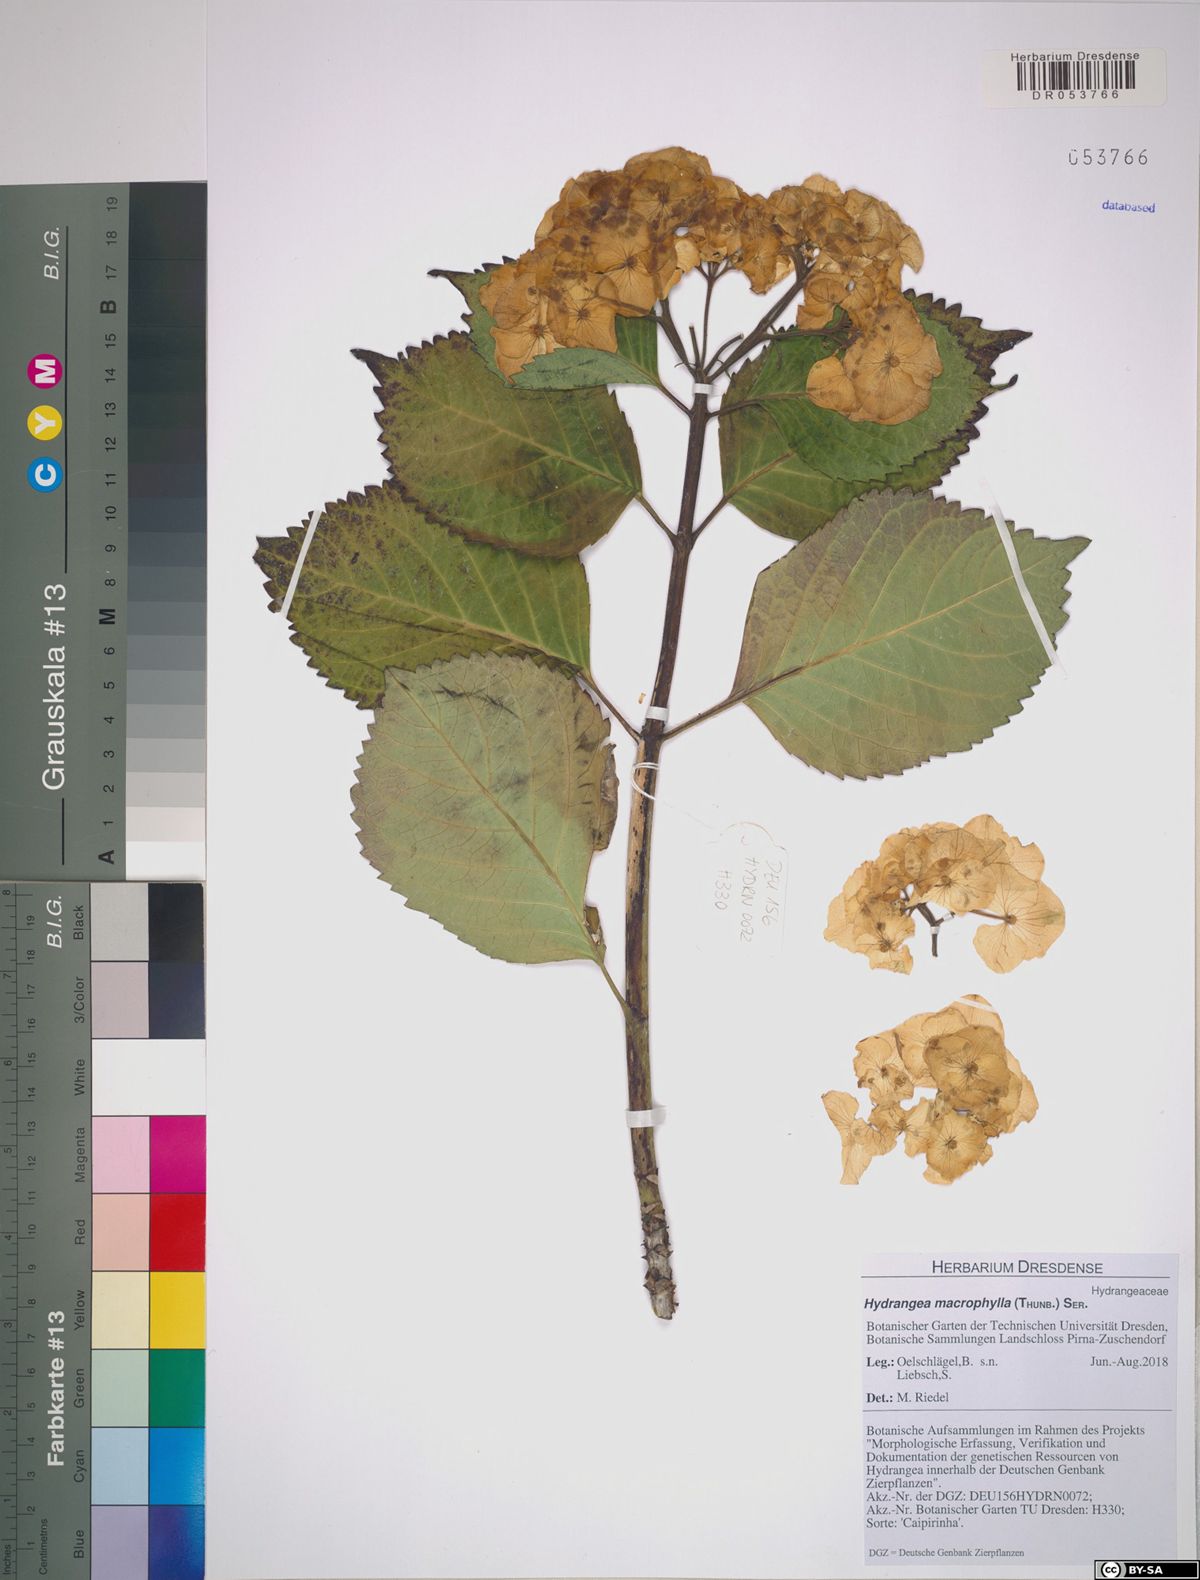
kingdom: Plantae
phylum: Tracheophyta
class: Magnoliopsida
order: Cornales
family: Hydrangeaceae
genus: Hydrangea
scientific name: Hydrangea macrophylla
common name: Hydrangea
